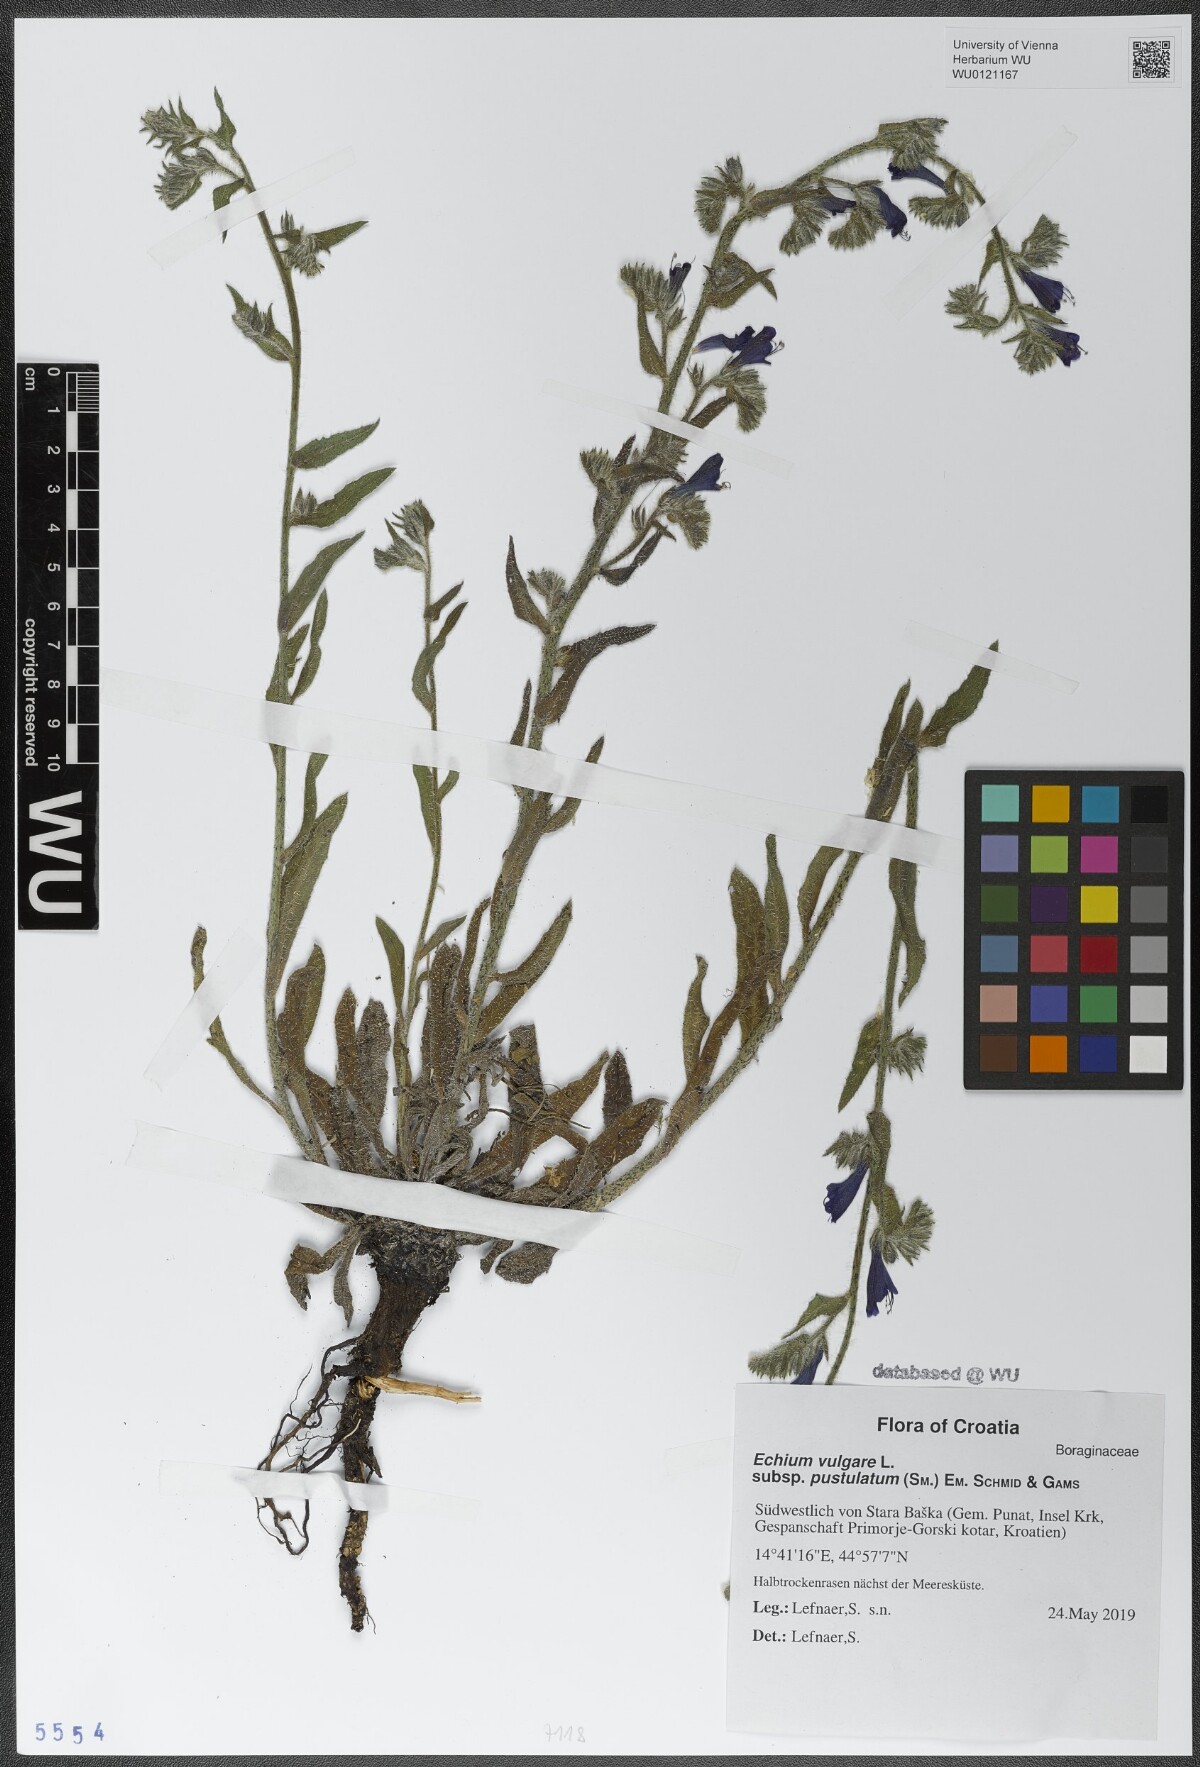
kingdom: Plantae
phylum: Tracheophyta
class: Magnoliopsida
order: Boraginales
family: Boraginaceae
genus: Echium
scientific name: Echium vulgare
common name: Common viper's bugloss
